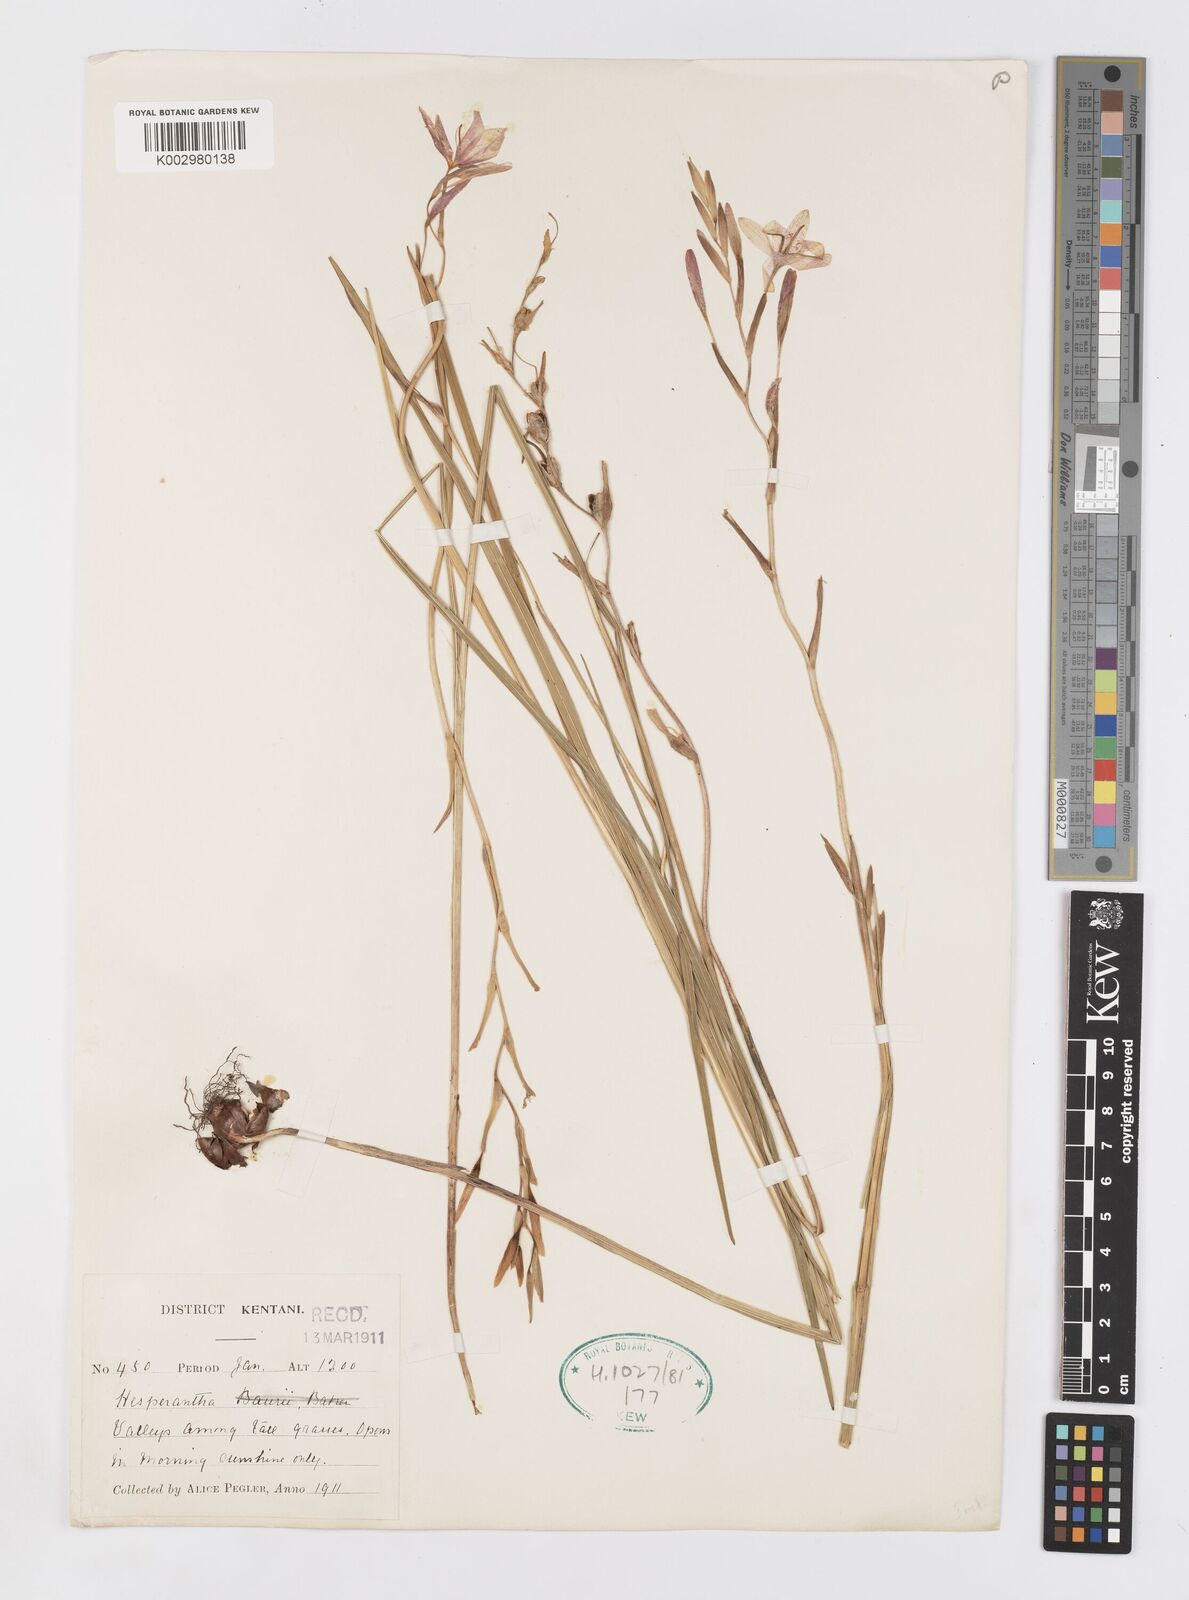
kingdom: Plantae
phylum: Tracheophyta
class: Liliopsida
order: Asparagales
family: Iridaceae
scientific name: Iridaceae
